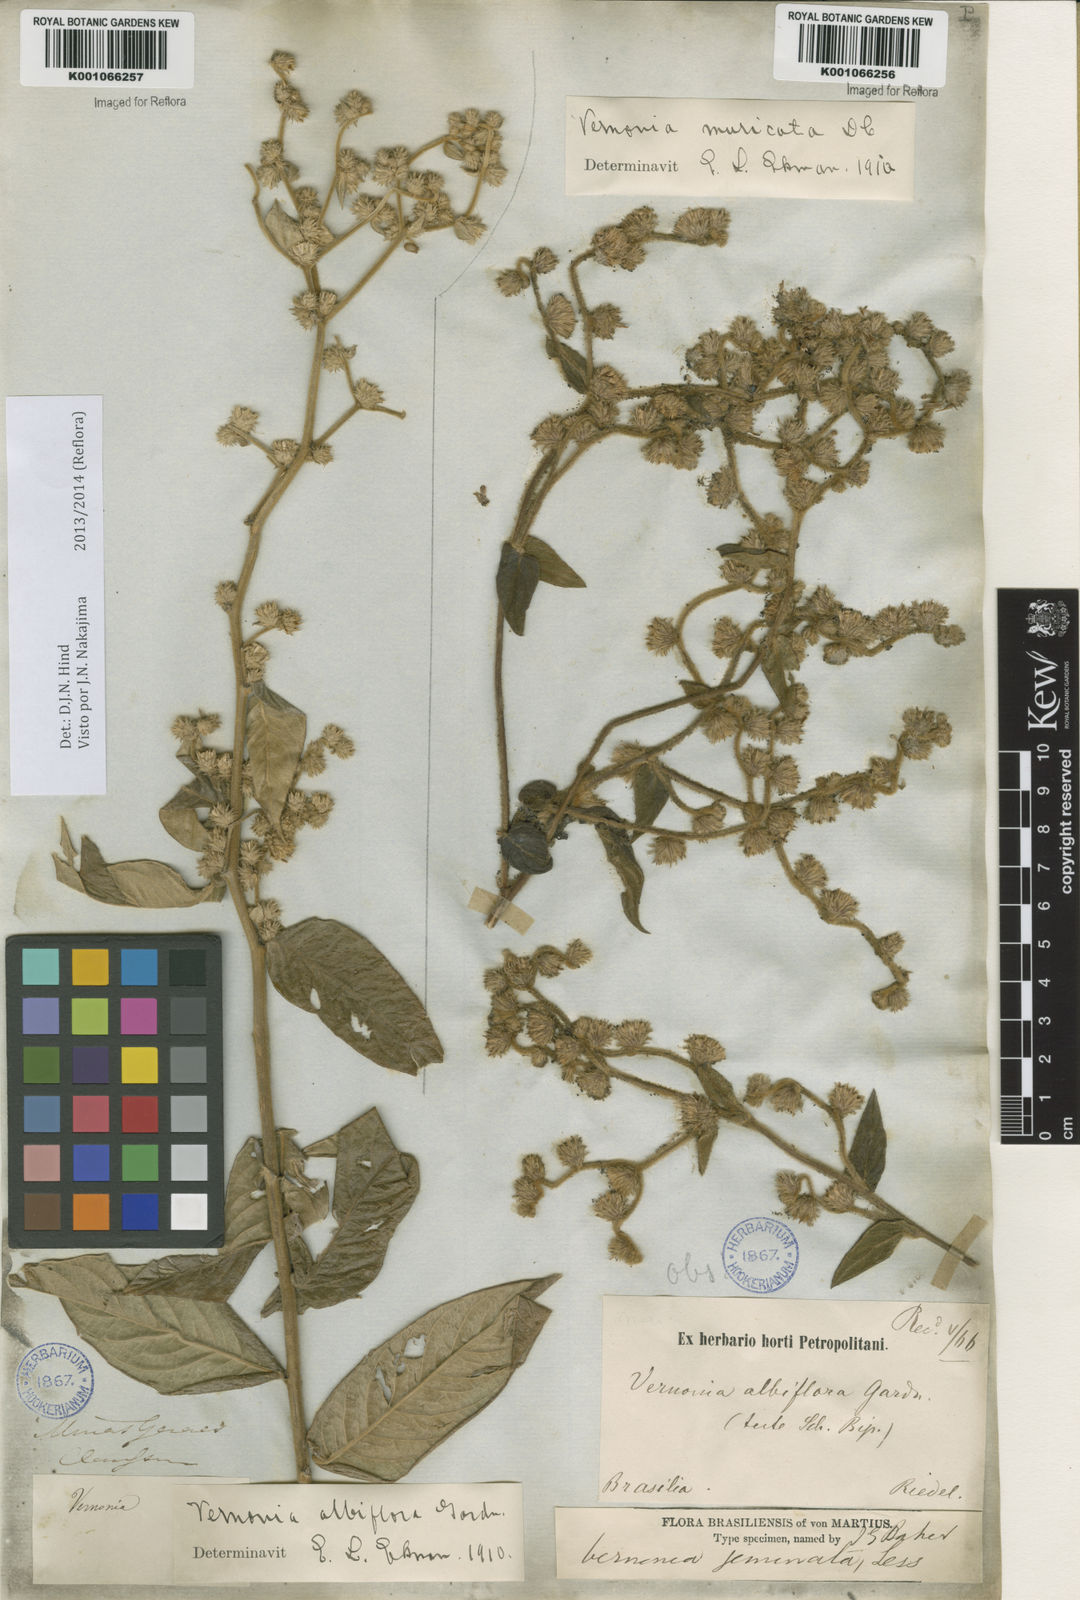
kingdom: Plantae
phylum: Tracheophyta
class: Magnoliopsida
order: Asterales
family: Asteraceae
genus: Lepidaploa
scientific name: Lepidaploa canescens
